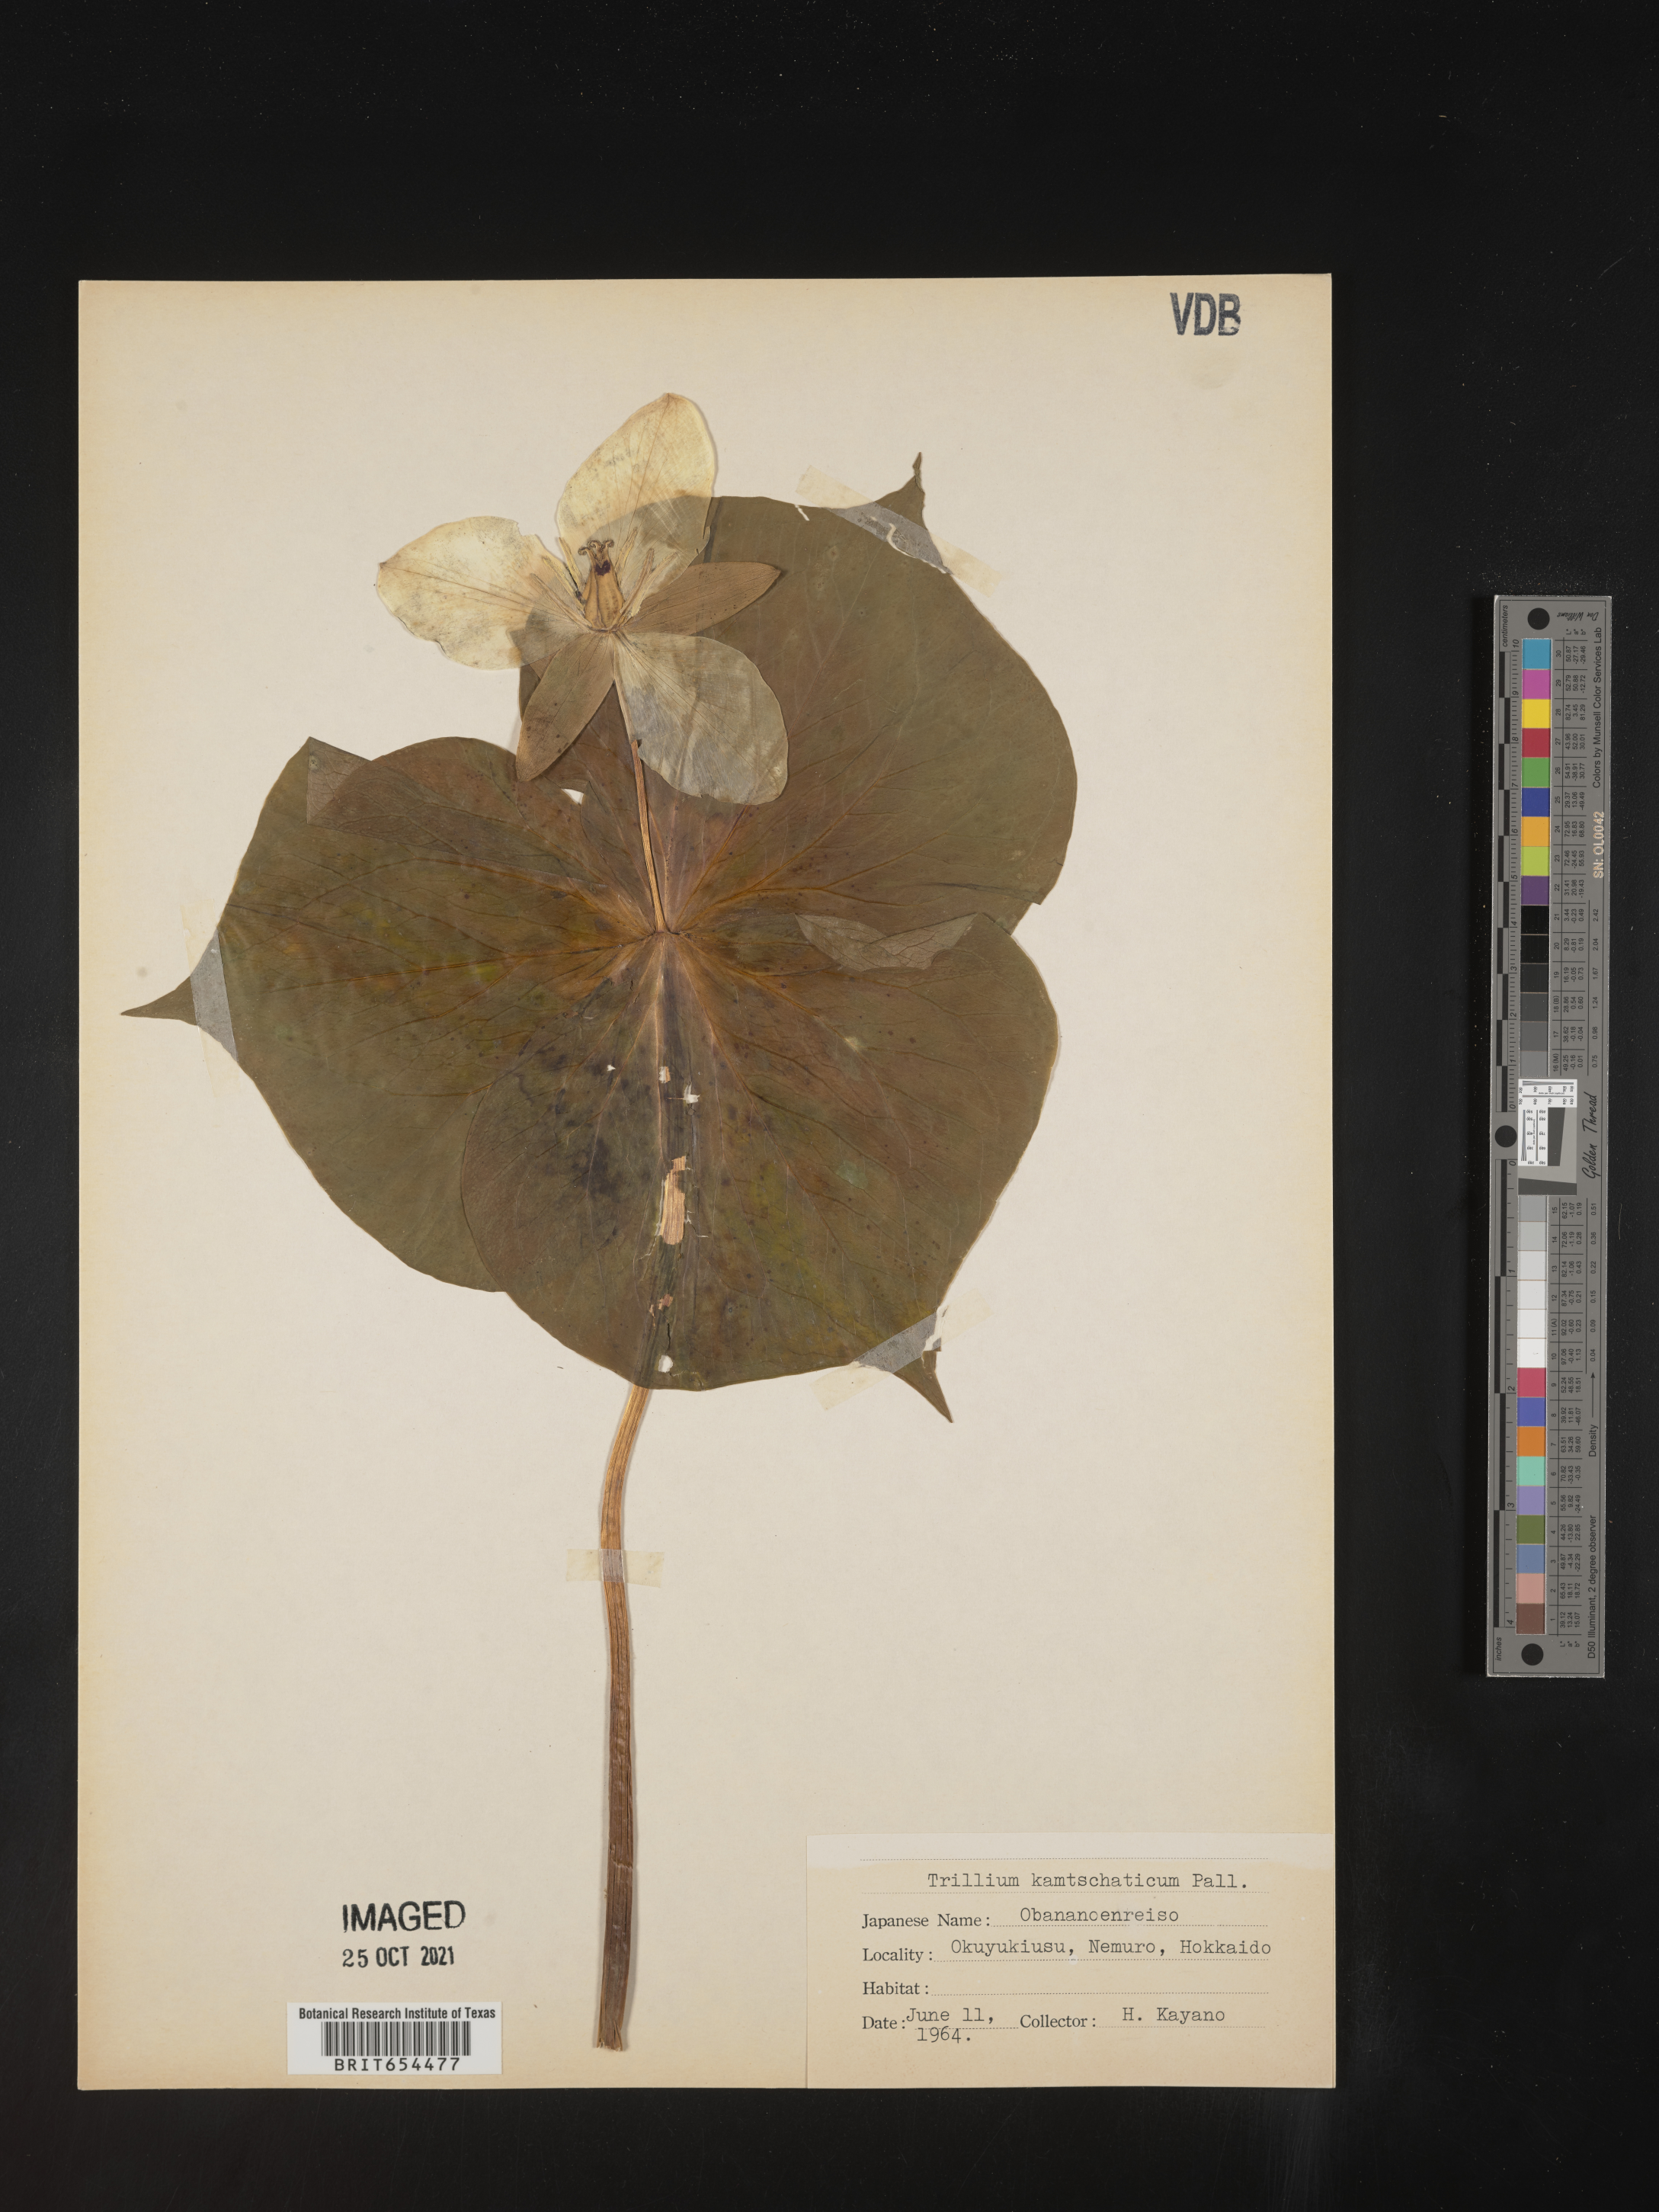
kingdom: Plantae
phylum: Tracheophyta
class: Liliopsida
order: Liliales
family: Melanthiaceae
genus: Trillium
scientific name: Trillium
